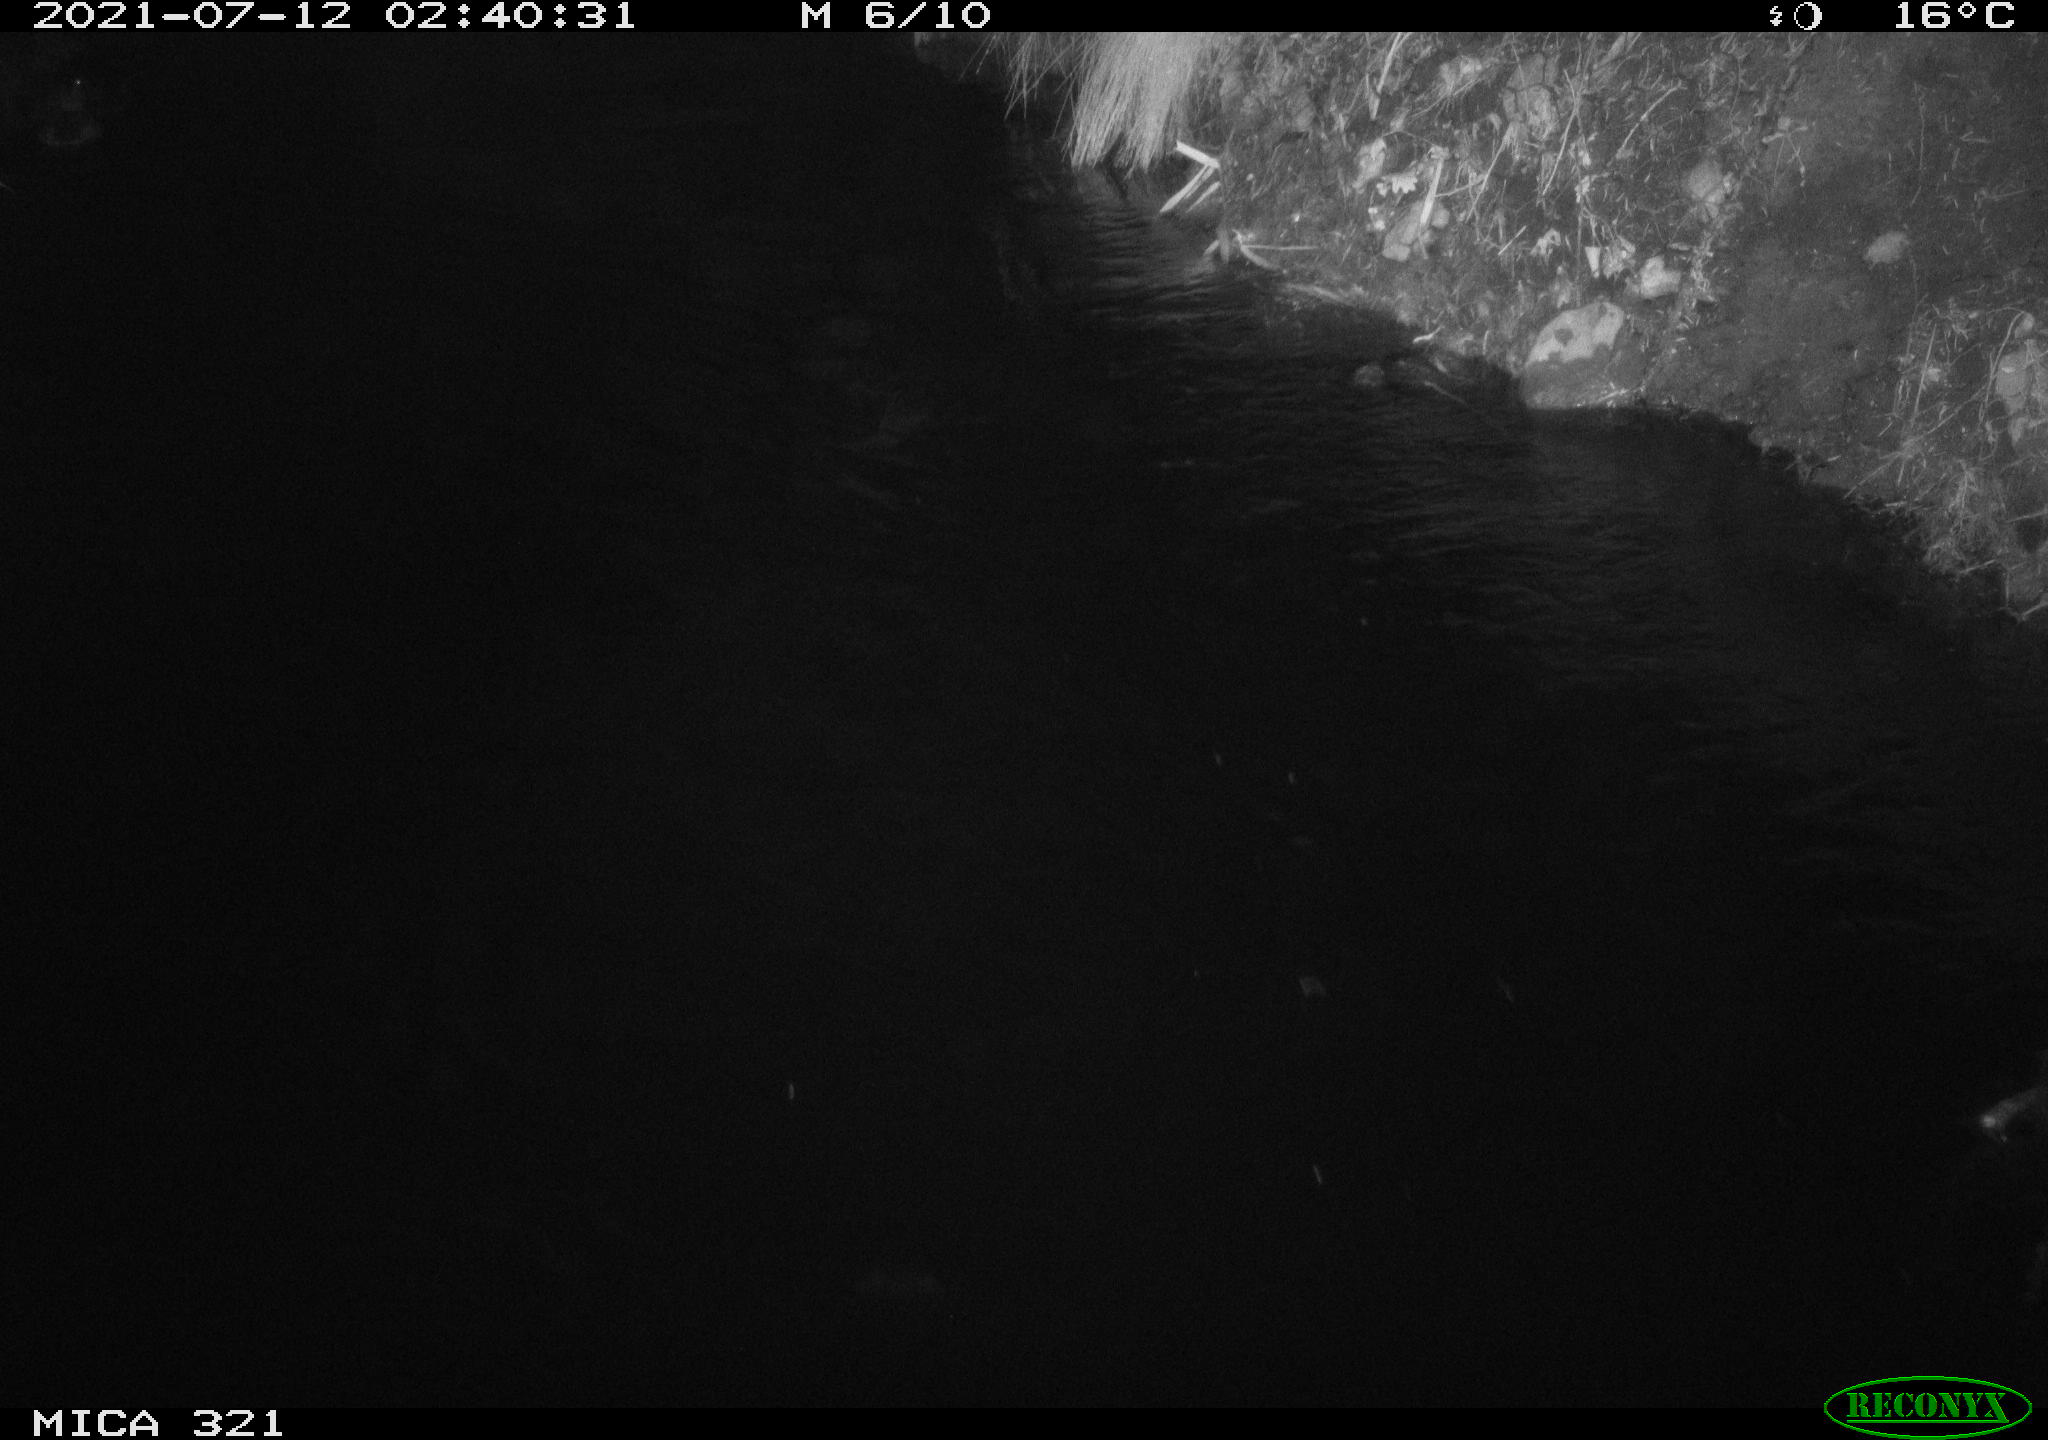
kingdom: Animalia
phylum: Chordata
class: Aves
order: Anseriformes
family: Anatidae
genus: Anas
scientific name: Anas platyrhynchos
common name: Mallard
